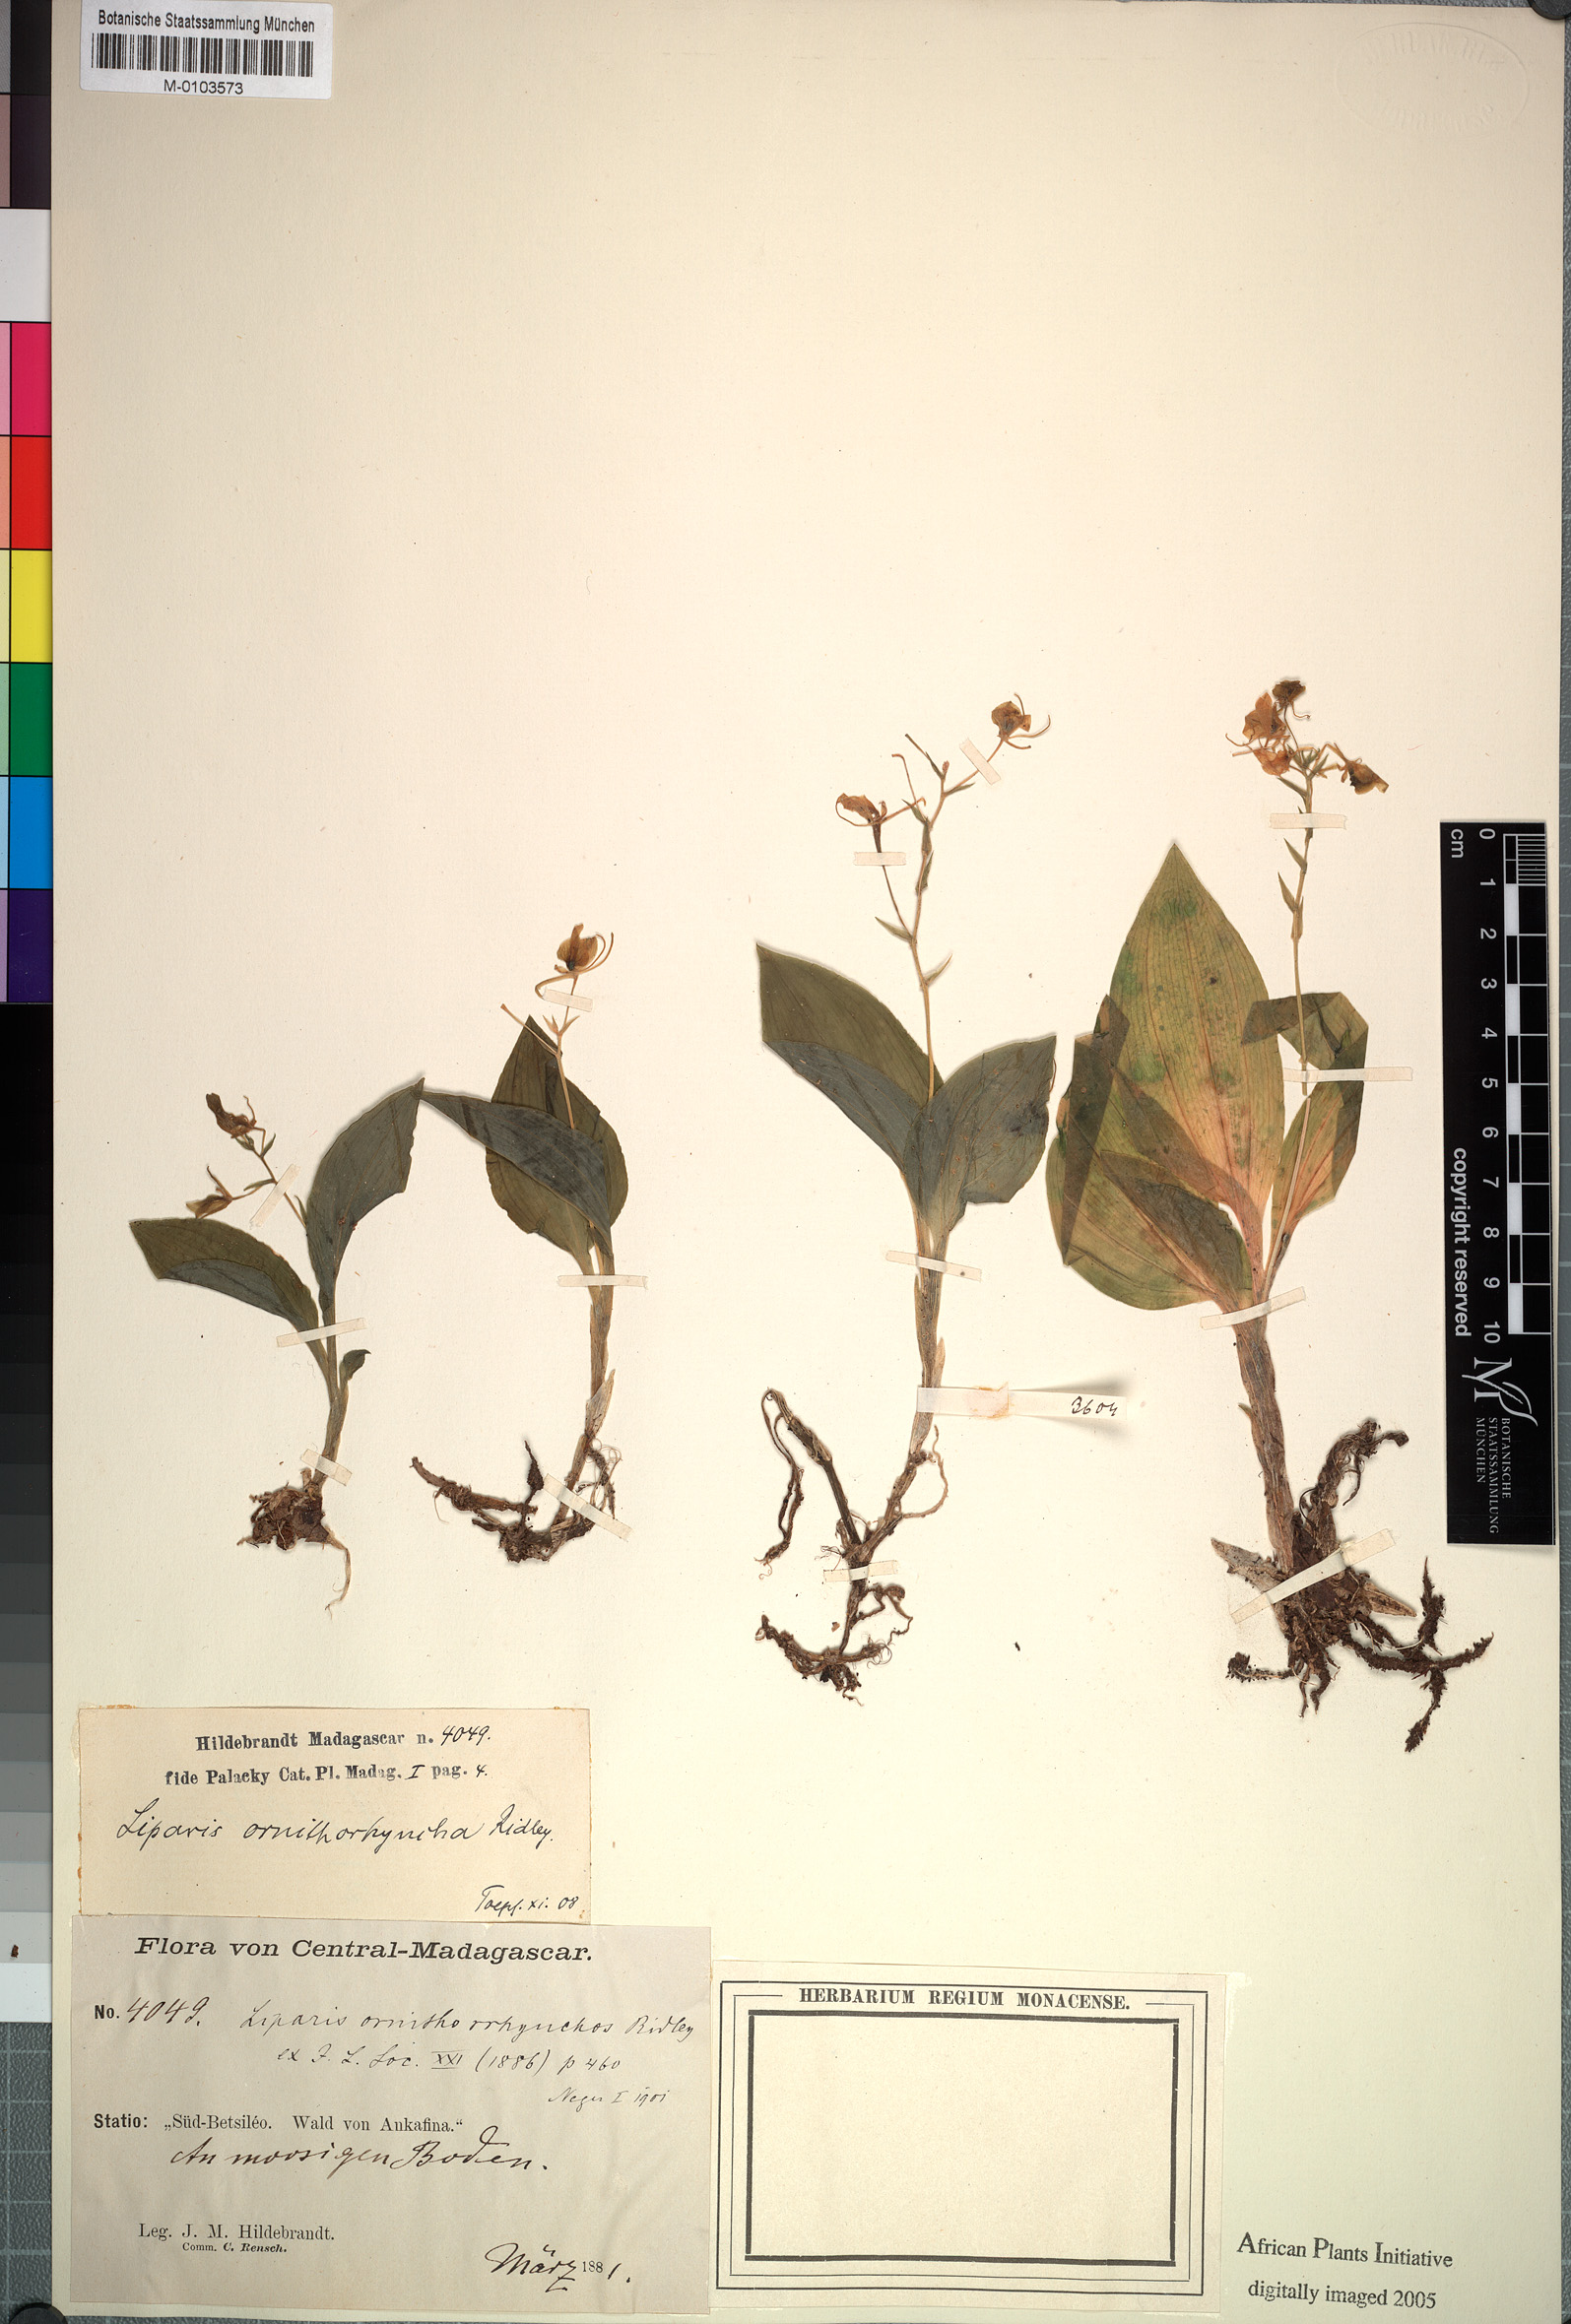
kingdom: Plantae
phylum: Tracheophyta
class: Liliopsida
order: Asparagales
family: Orchidaceae
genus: Liparis
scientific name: Liparis ornithorrhynchos
